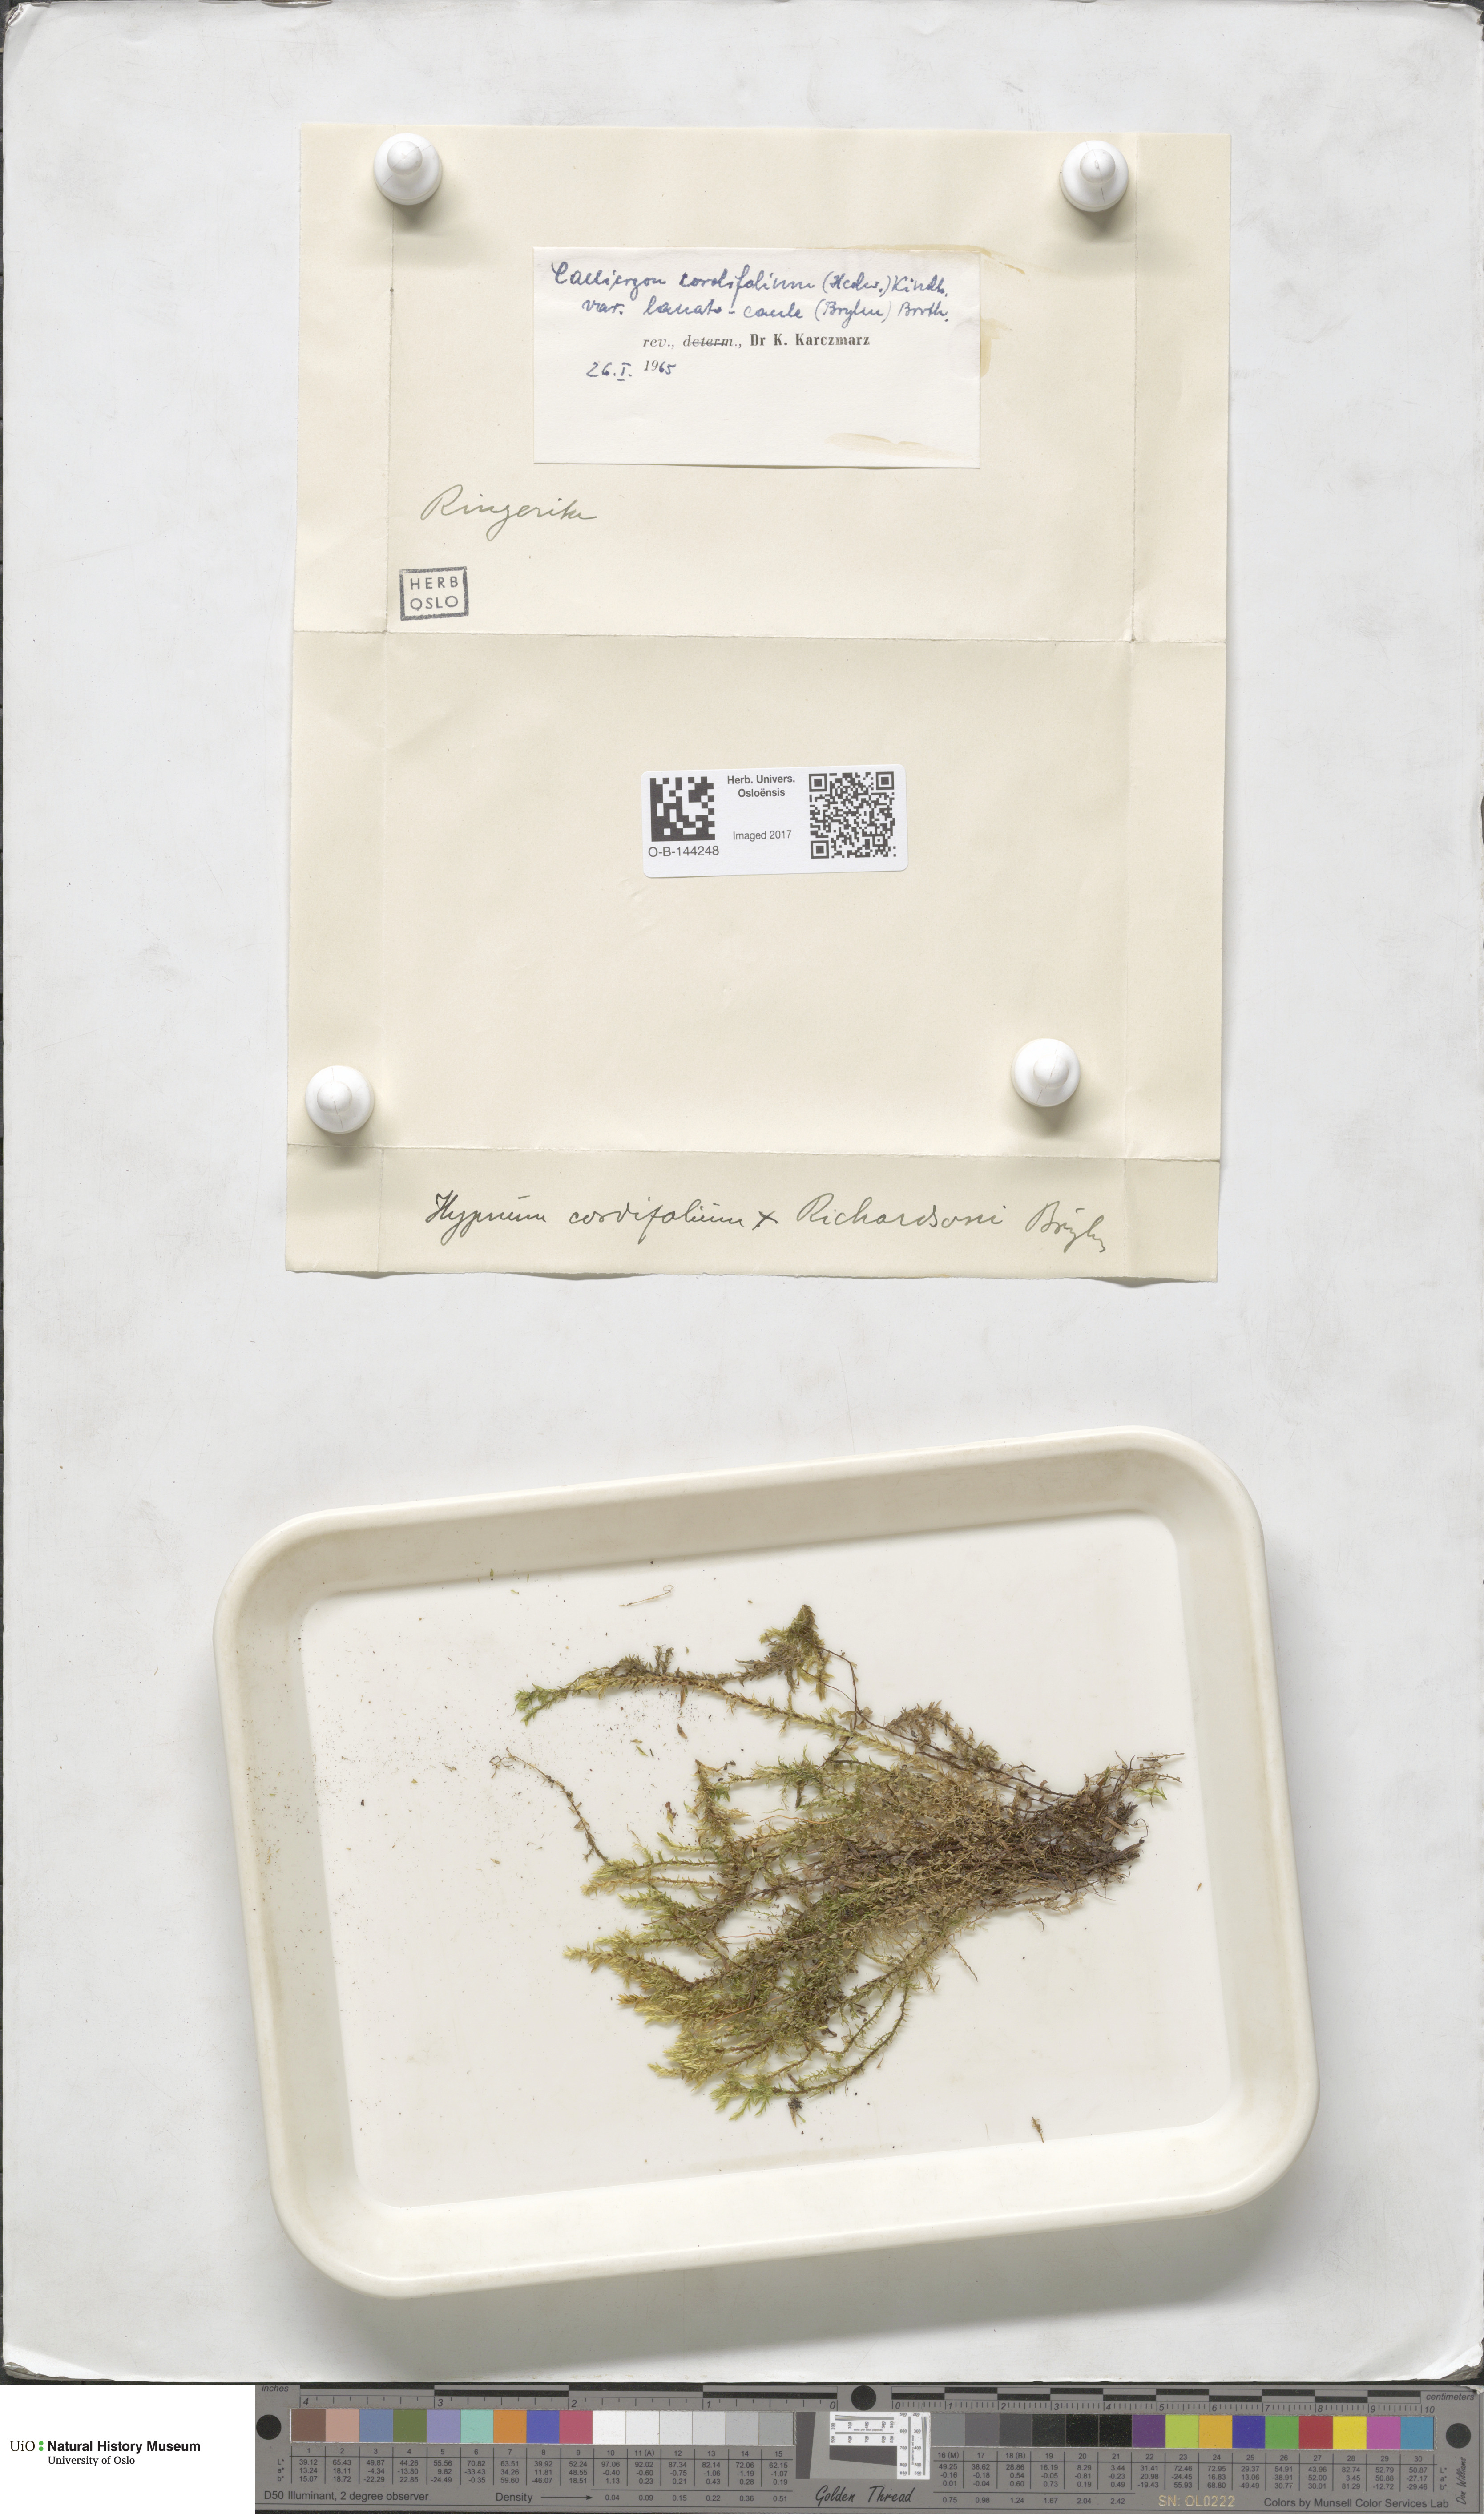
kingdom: Plantae
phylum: Bryophyta
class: Bryopsida
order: Hypnales
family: Calliergonaceae
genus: Calliergon
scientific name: Calliergon cordifolium
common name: Heart-leaved spear moss
